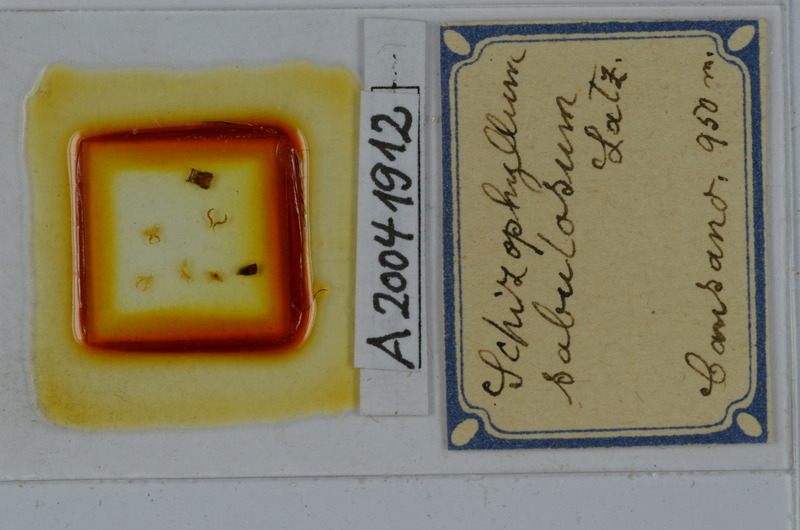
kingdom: Animalia
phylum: Arthropoda
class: Diplopoda
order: Julida
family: Julidae
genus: Schizophyllum
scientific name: Schizophyllum sabulosum
